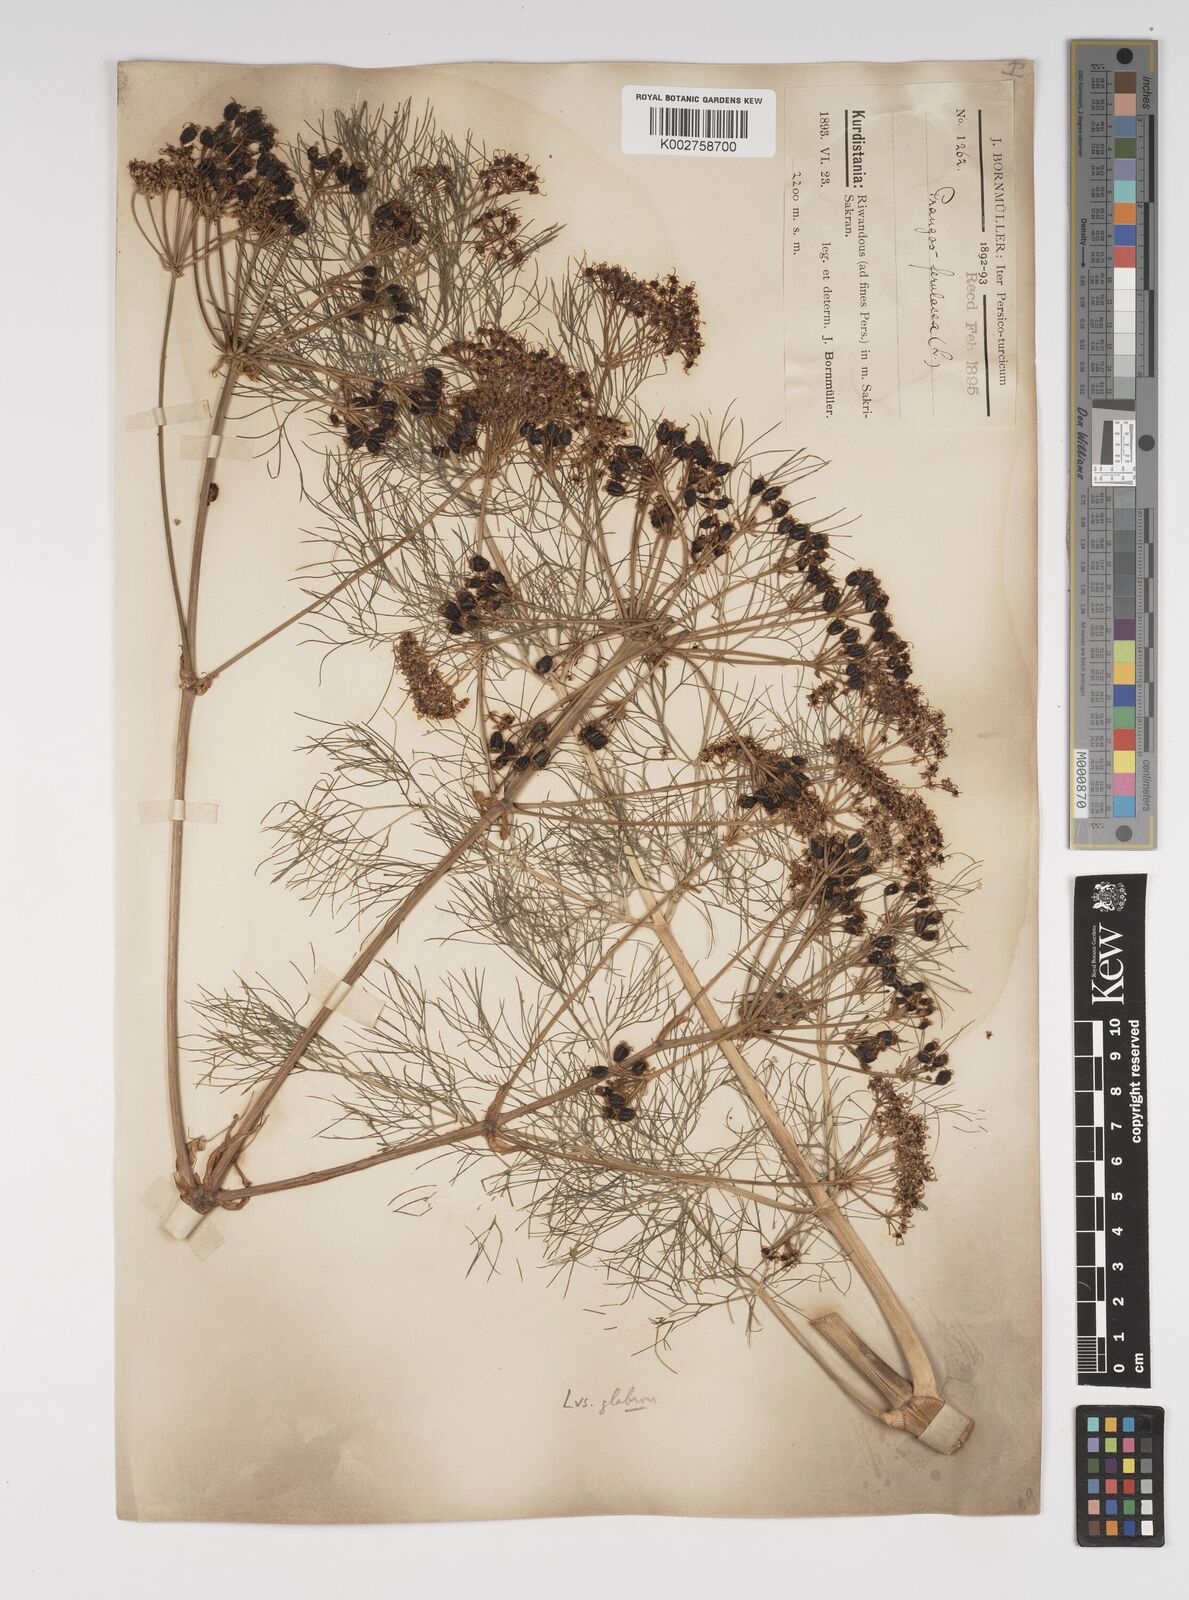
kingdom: Plantae
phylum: Tracheophyta
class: Magnoliopsida
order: Apiales
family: Apiaceae
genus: Prangos
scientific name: Prangos ferulacea
